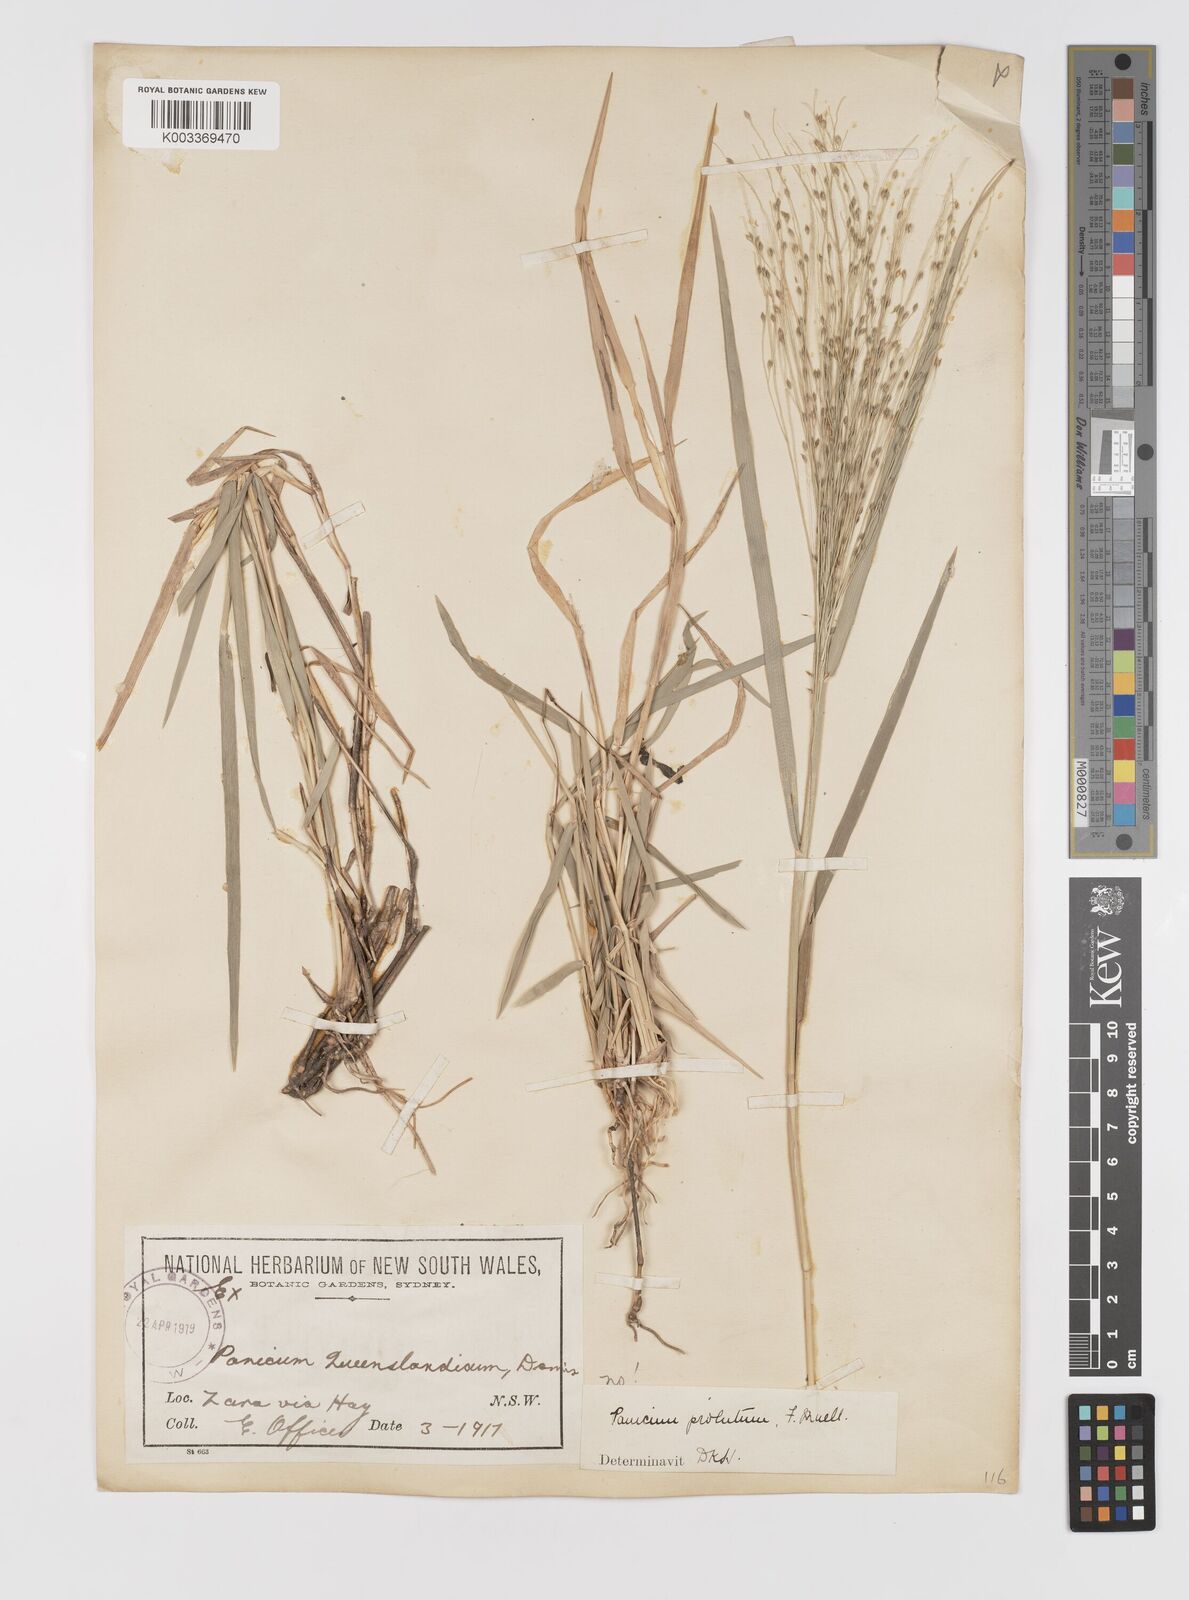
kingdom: Plantae
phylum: Tracheophyta
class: Liliopsida
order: Poales
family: Poaceae
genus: Walwhalleya
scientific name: Walwhalleya proluta
